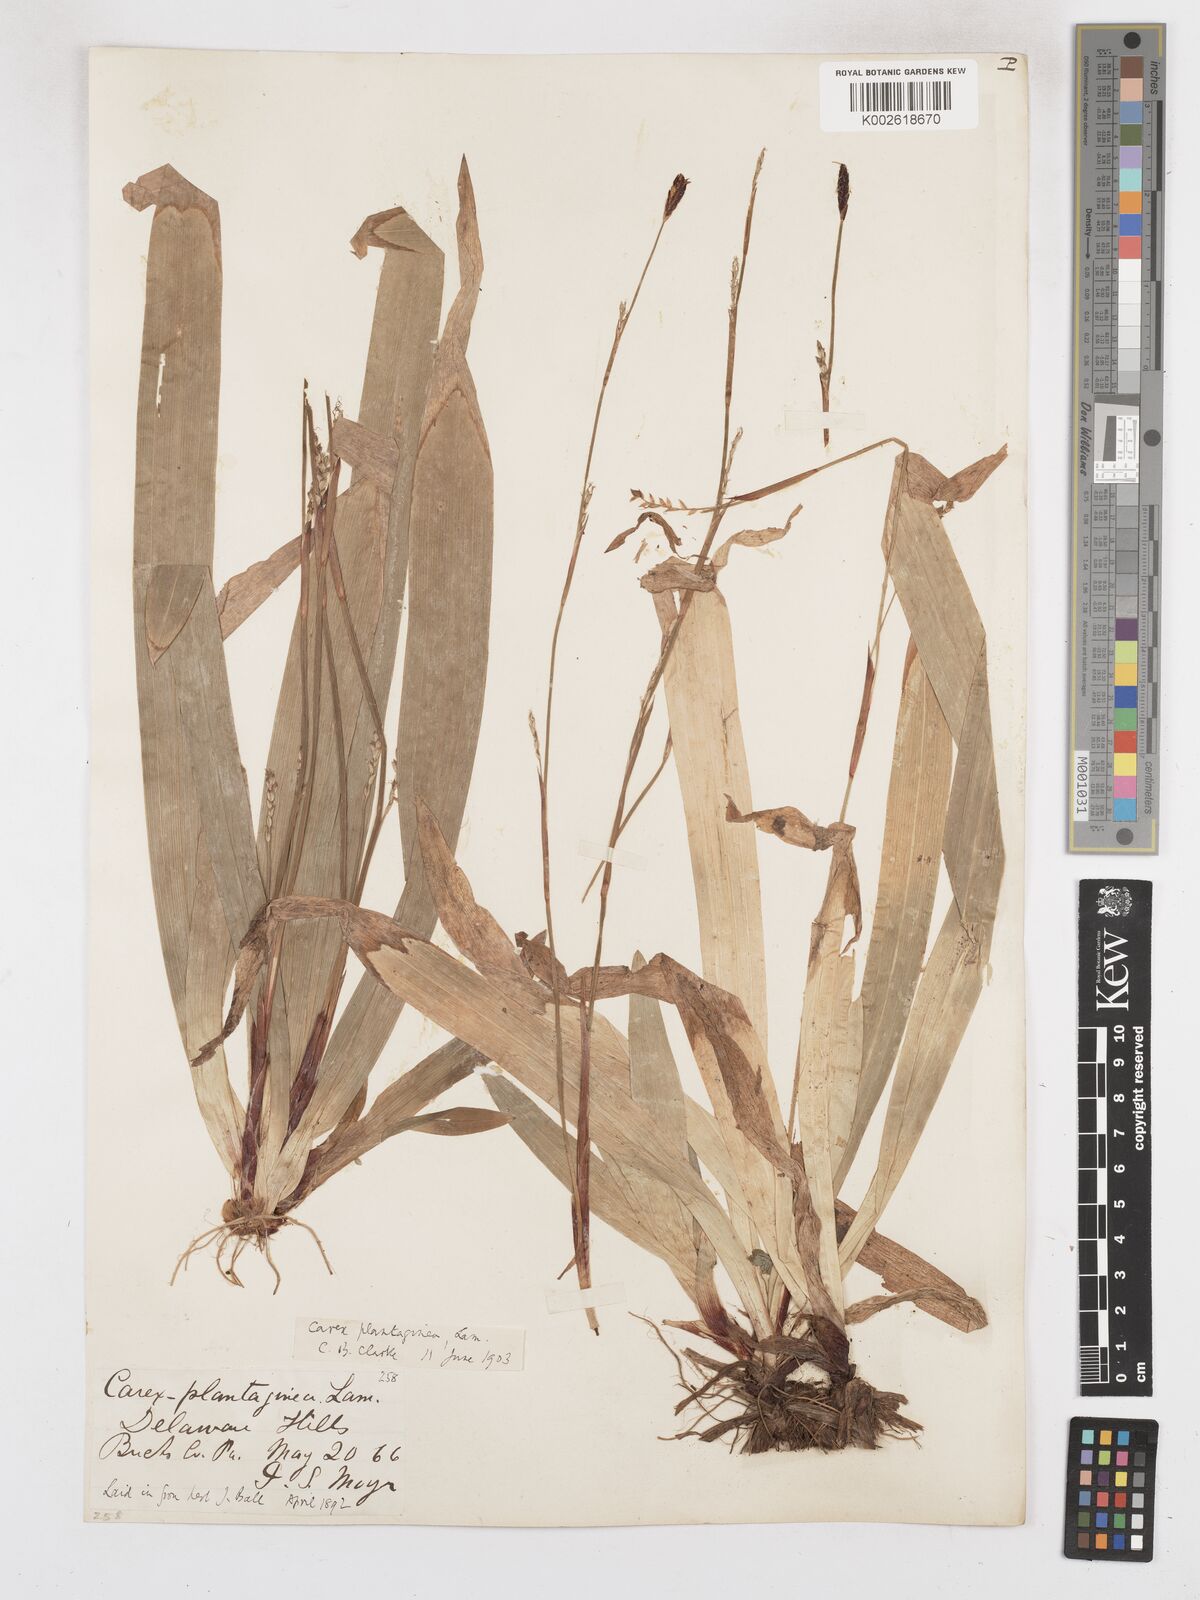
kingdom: Plantae
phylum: Tracheophyta
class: Liliopsida
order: Poales
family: Cyperaceae
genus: Carex
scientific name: Carex plantaginea
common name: Plantain-leaved sedge
